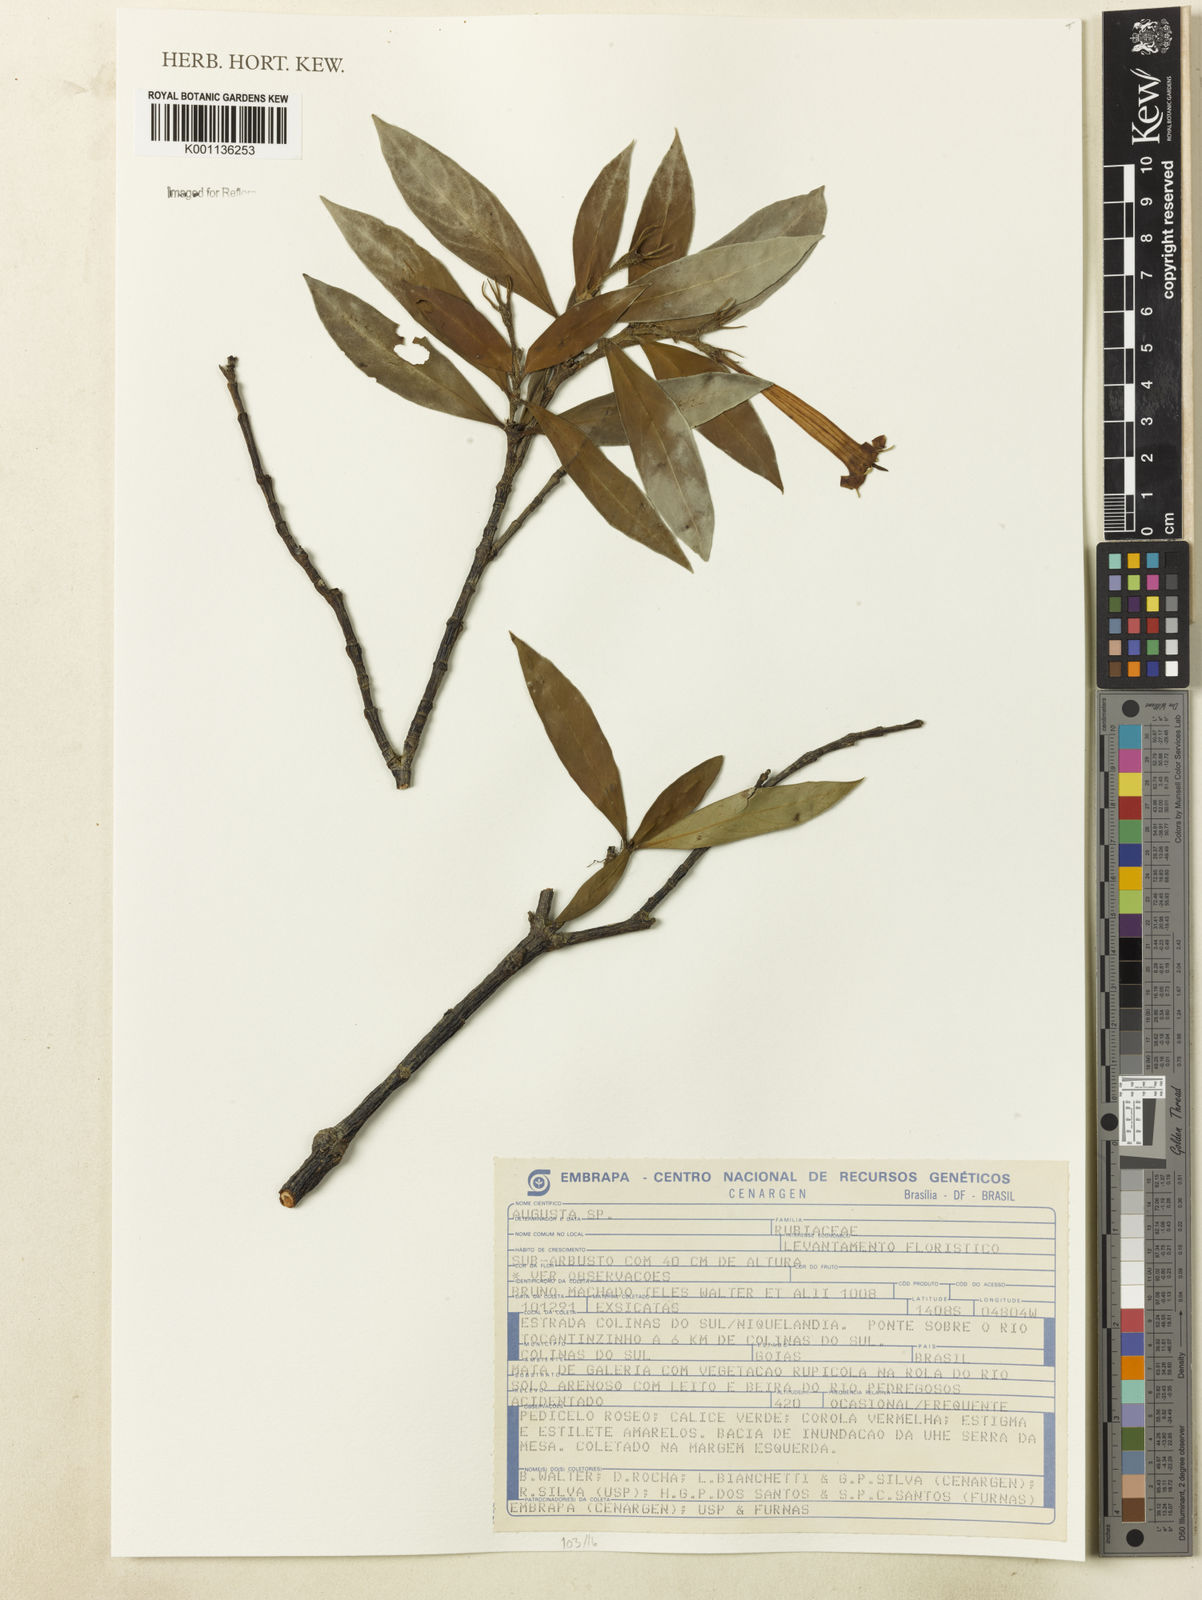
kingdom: Plantae
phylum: Tracheophyta
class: Magnoliopsida
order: Gentianales
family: Rubiaceae
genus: Augusta
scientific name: Augusta
